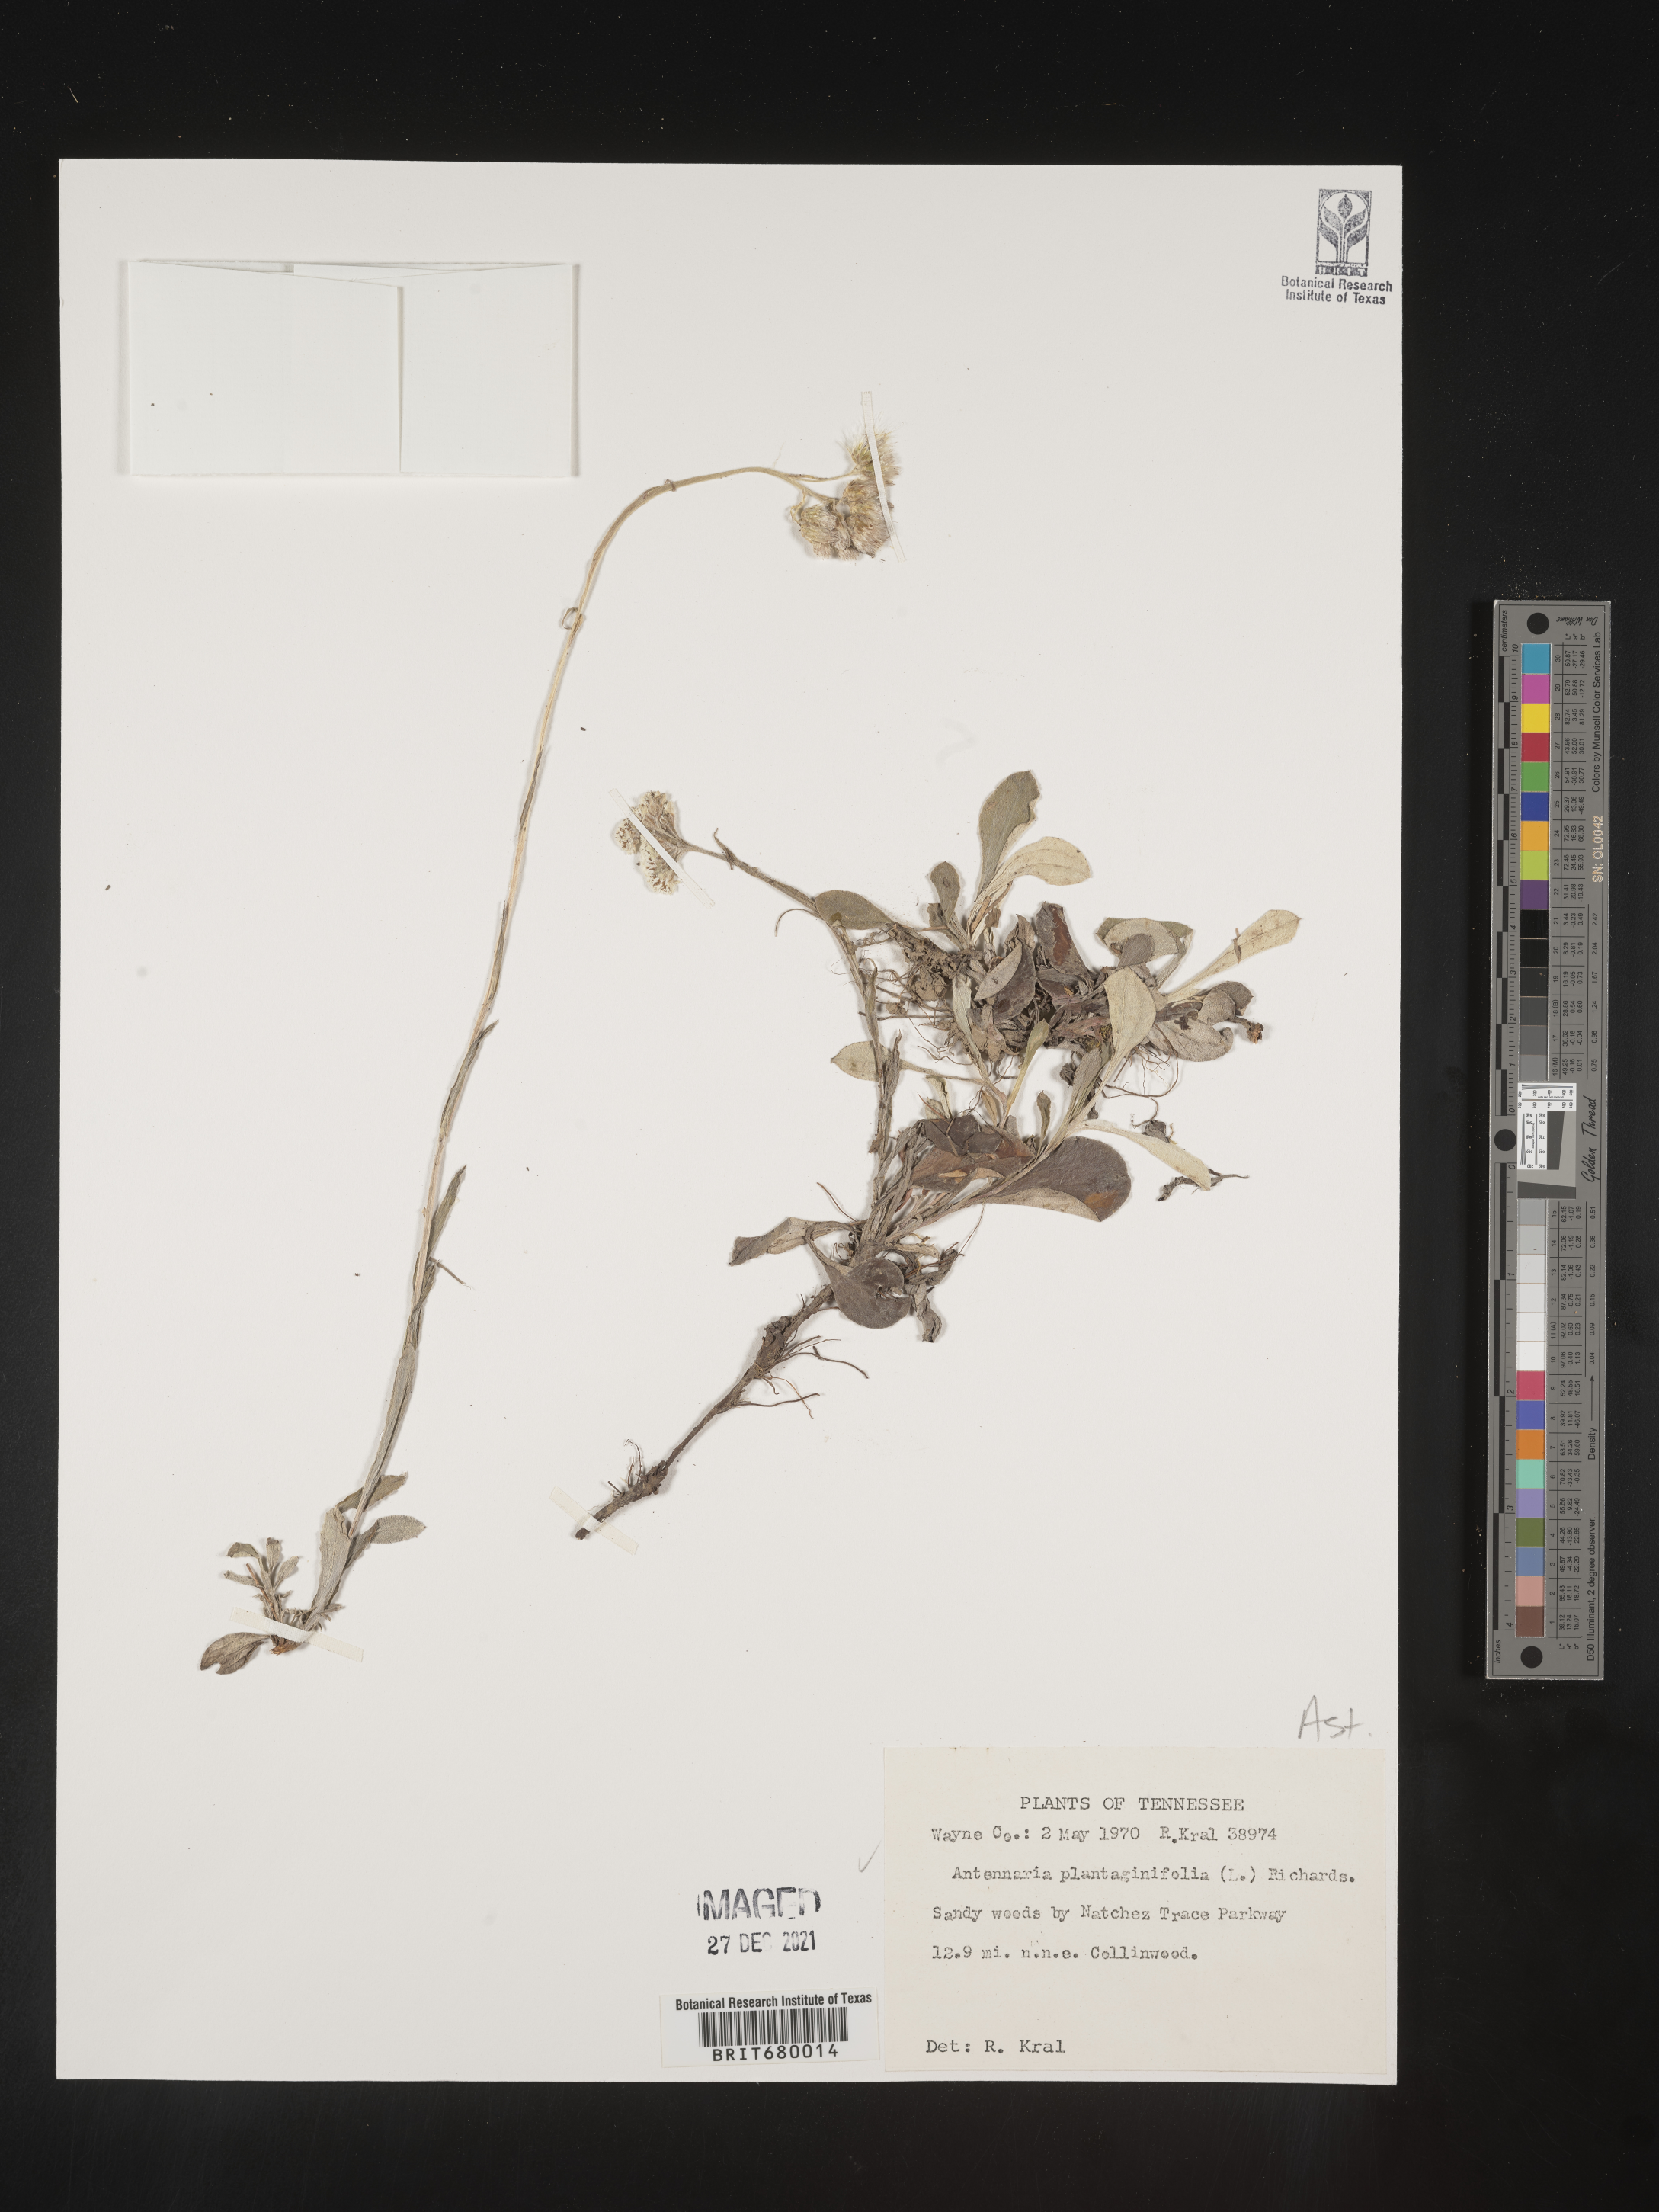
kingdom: Plantae
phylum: Tracheophyta
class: Magnoliopsida
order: Asterales
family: Asteraceae
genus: Antennaria
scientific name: Antennaria plantaginifolia
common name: Plantain-leaved pussytoes
